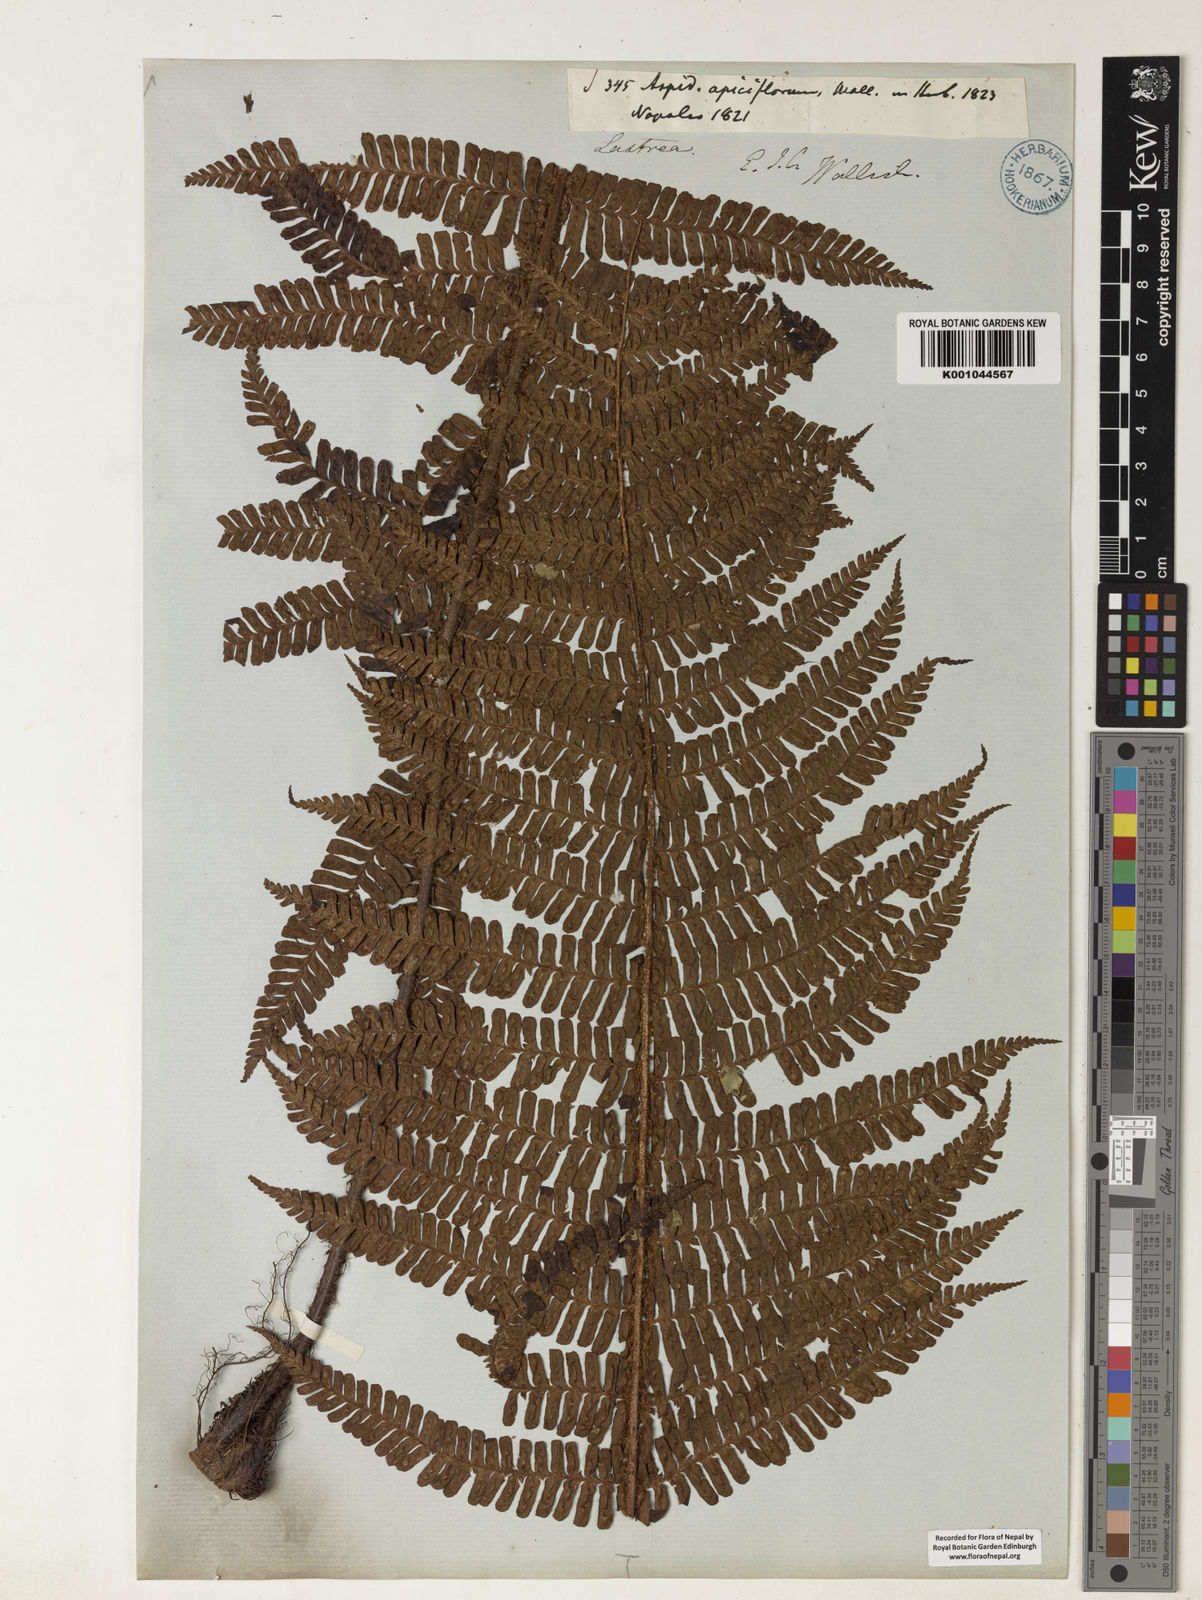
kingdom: Plantae
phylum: Tracheophyta
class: Polypodiopsida
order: Polypodiales
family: Dryopteridaceae
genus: Dryopteris
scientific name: Dryopteris apiciflora
